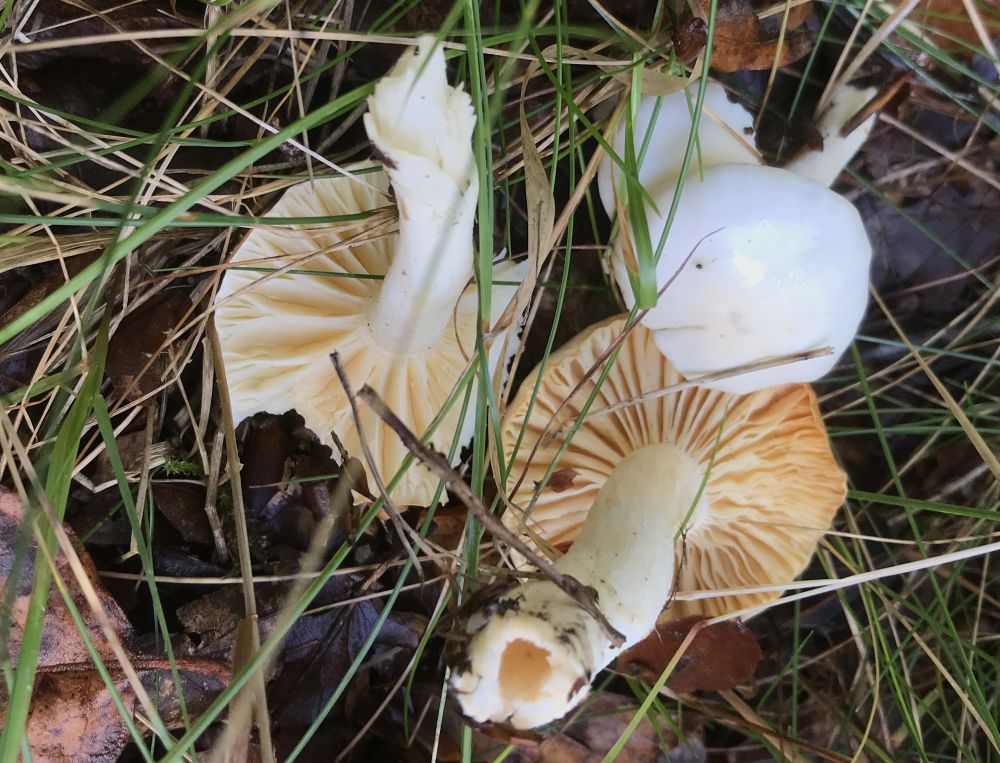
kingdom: Fungi
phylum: Basidiomycota
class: Agaricomycetes
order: Agaricales
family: Hygrophoraceae
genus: Hygrophorus
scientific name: Hygrophorus discoxanthus
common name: ildelugtende sneglehat
